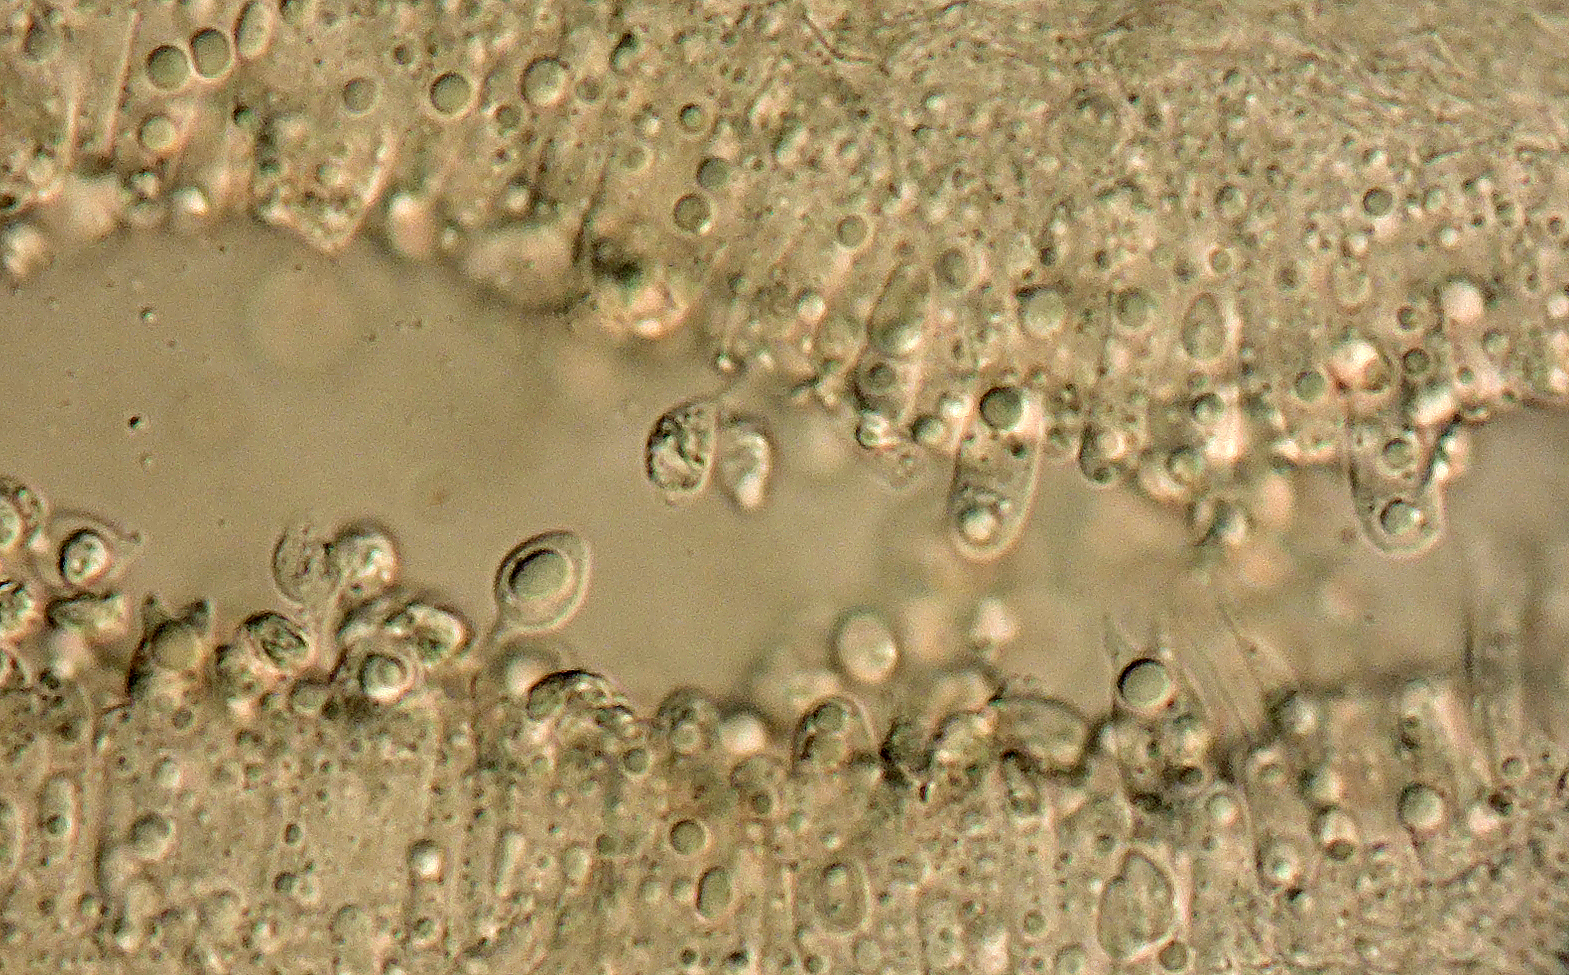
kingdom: Fungi
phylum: Basidiomycota
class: Agaricomycetes
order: Agaricales
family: Tricholomataceae
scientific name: Tricholomataceae
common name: ridderhatfamilien
